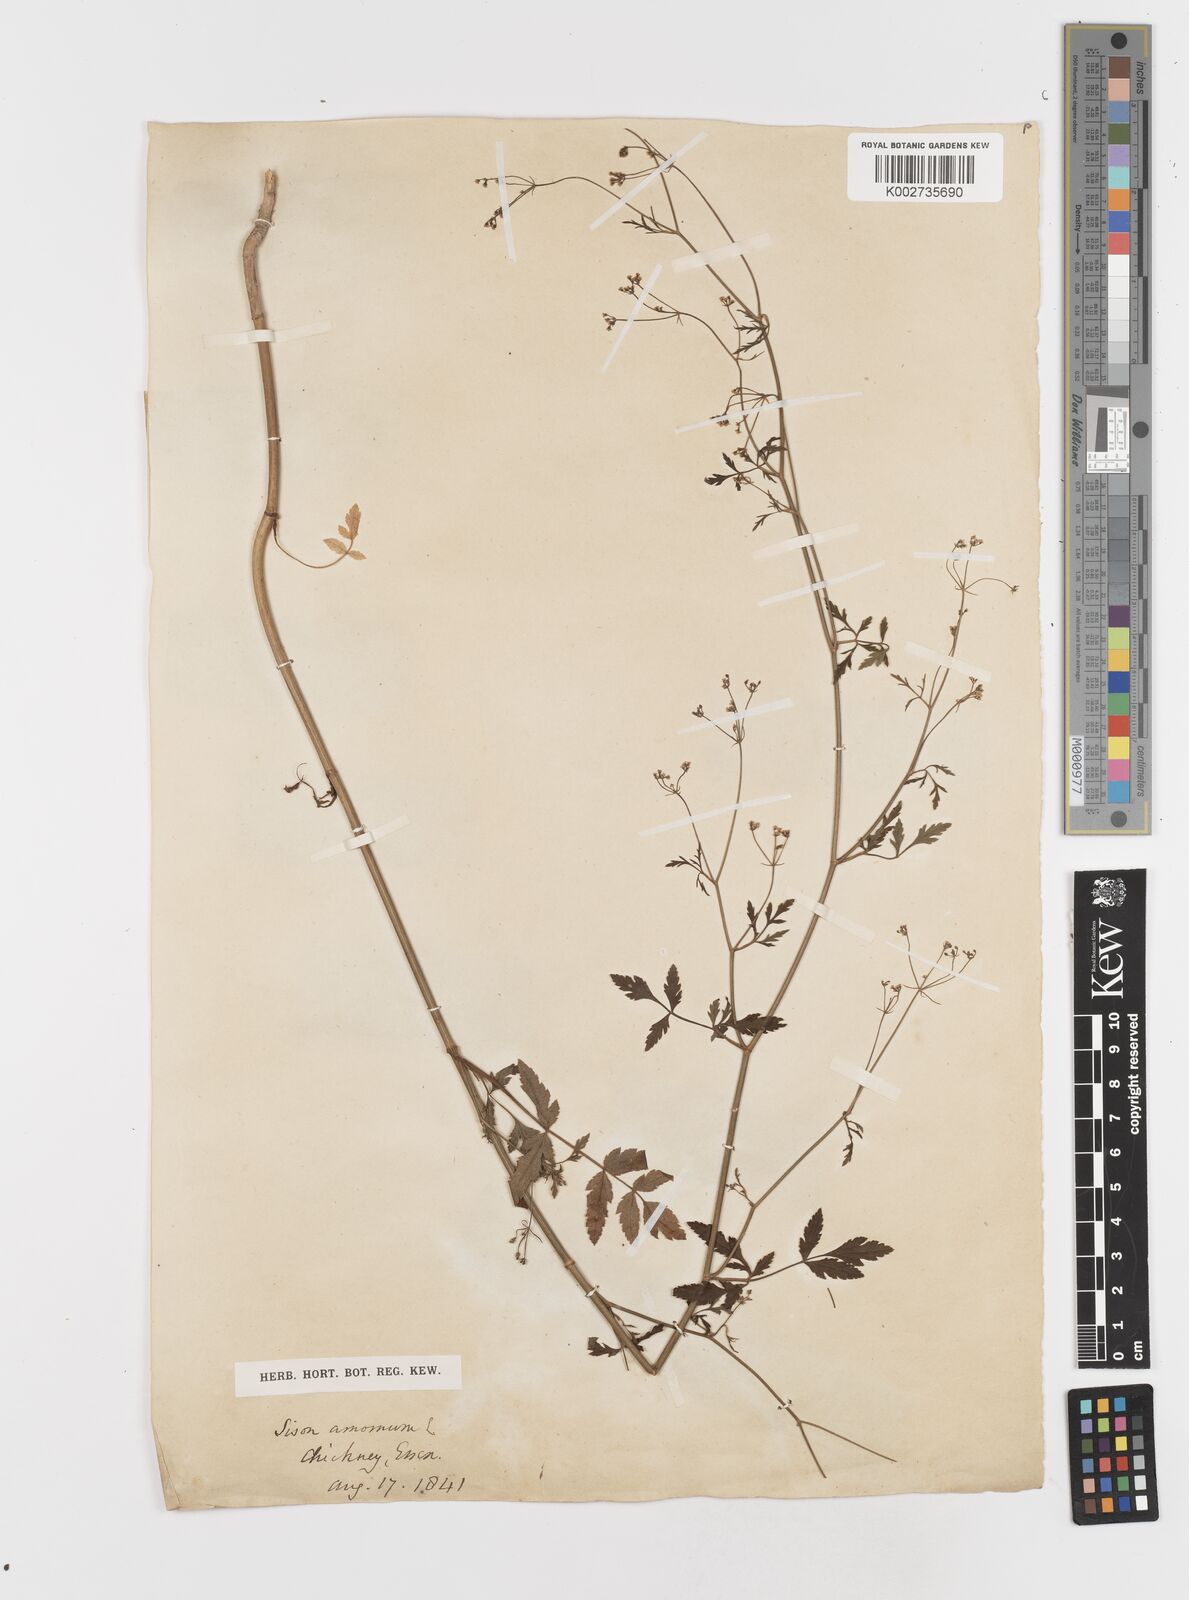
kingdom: Plantae
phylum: Tracheophyta
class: Magnoliopsida
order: Apiales
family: Apiaceae
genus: Sison
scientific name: Sison amomum
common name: Stone-parsley
